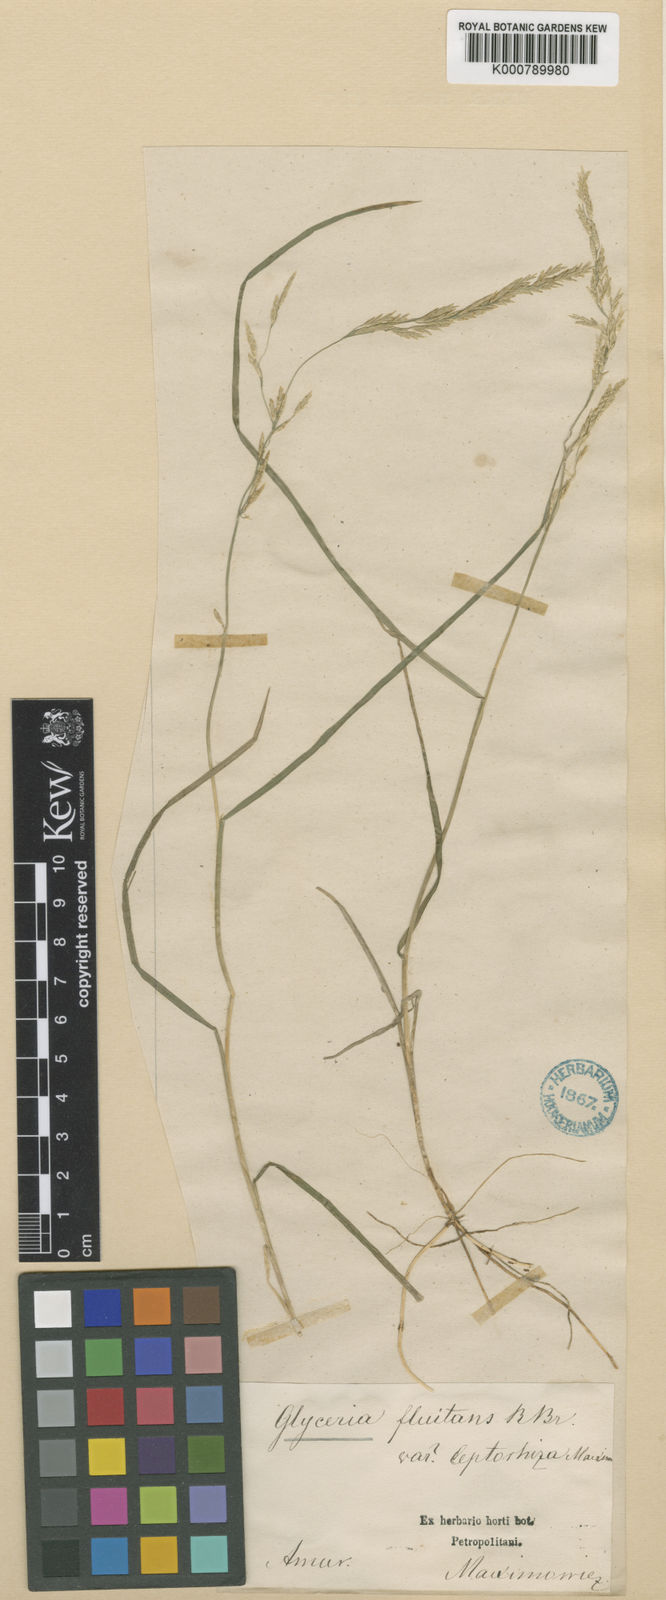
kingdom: Plantae
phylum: Tracheophyta
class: Liliopsida
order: Poales
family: Poaceae
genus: Glyceria
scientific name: Glyceria fluitans
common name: Floating sweet-grass
